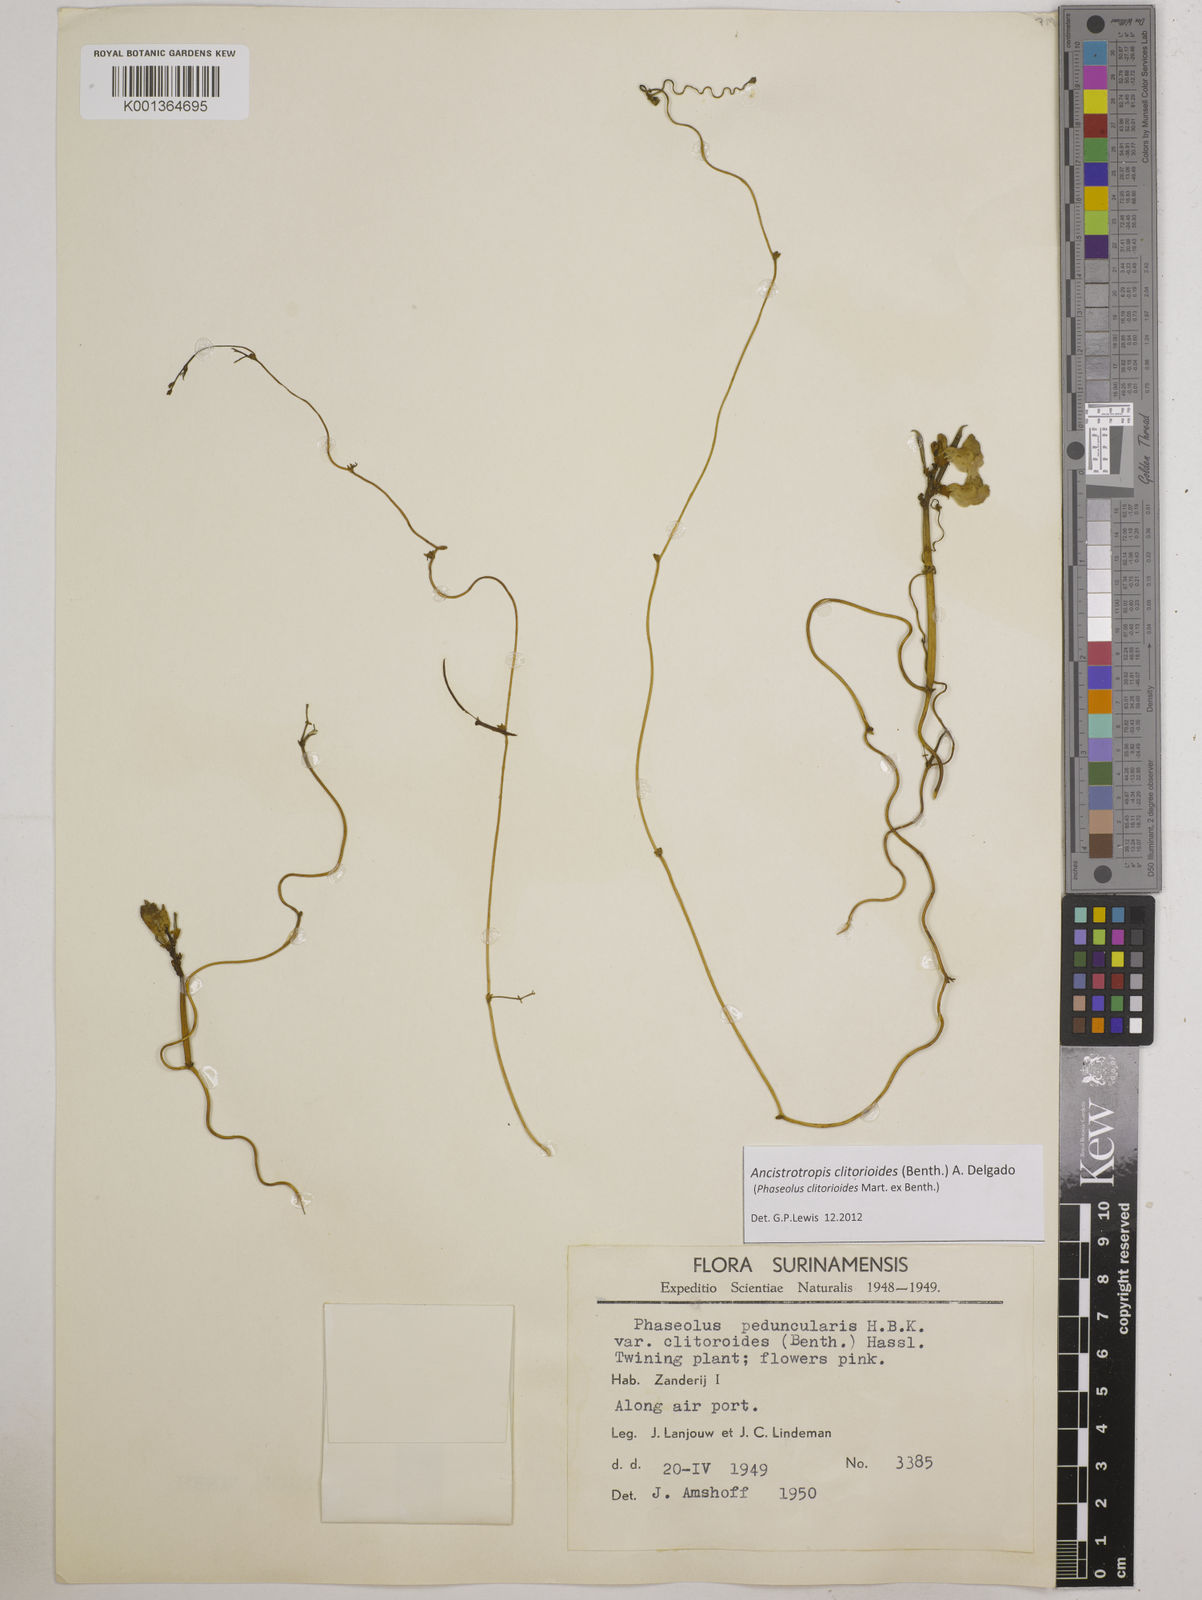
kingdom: Plantae
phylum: Tracheophyta
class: Magnoliopsida
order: Fabales
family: Fabaceae
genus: Ancistrotropis
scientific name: Ancistrotropis clitorioides
